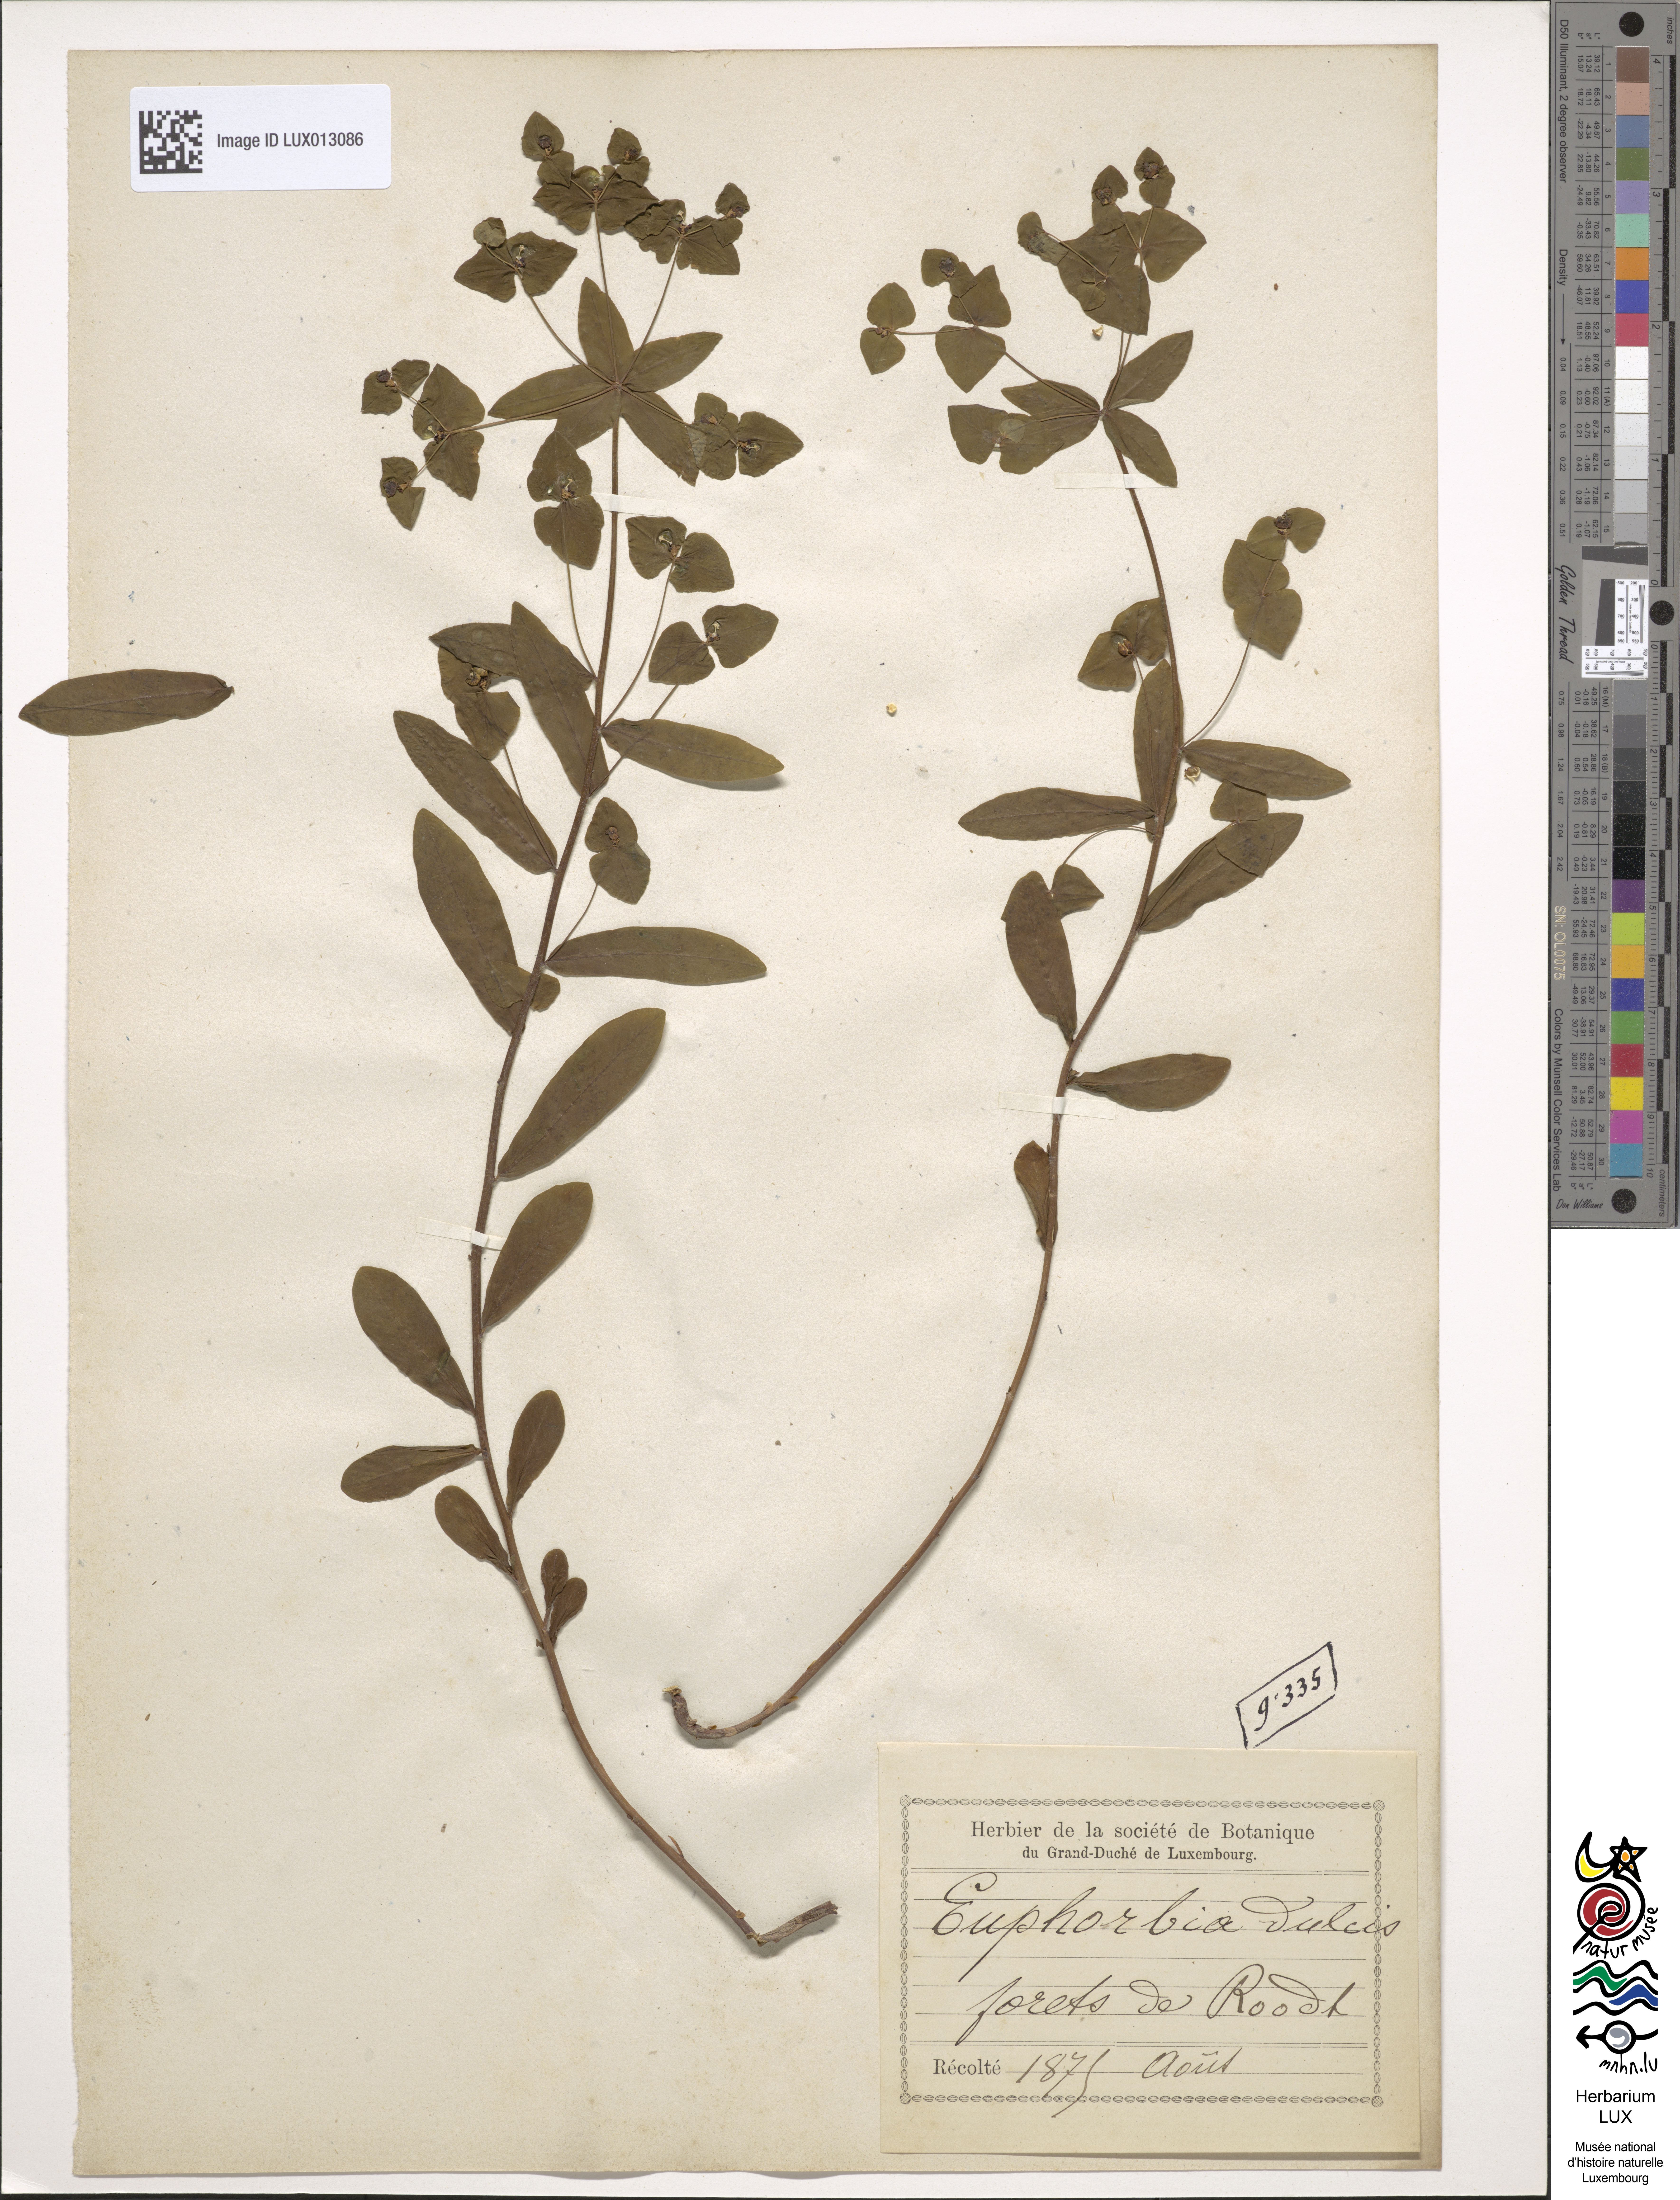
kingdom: Plantae
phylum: Tracheophyta
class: Magnoliopsida
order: Malpighiales
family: Euphorbiaceae
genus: Euphorbia
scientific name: Euphorbia dulcis
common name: Sweet spurge
